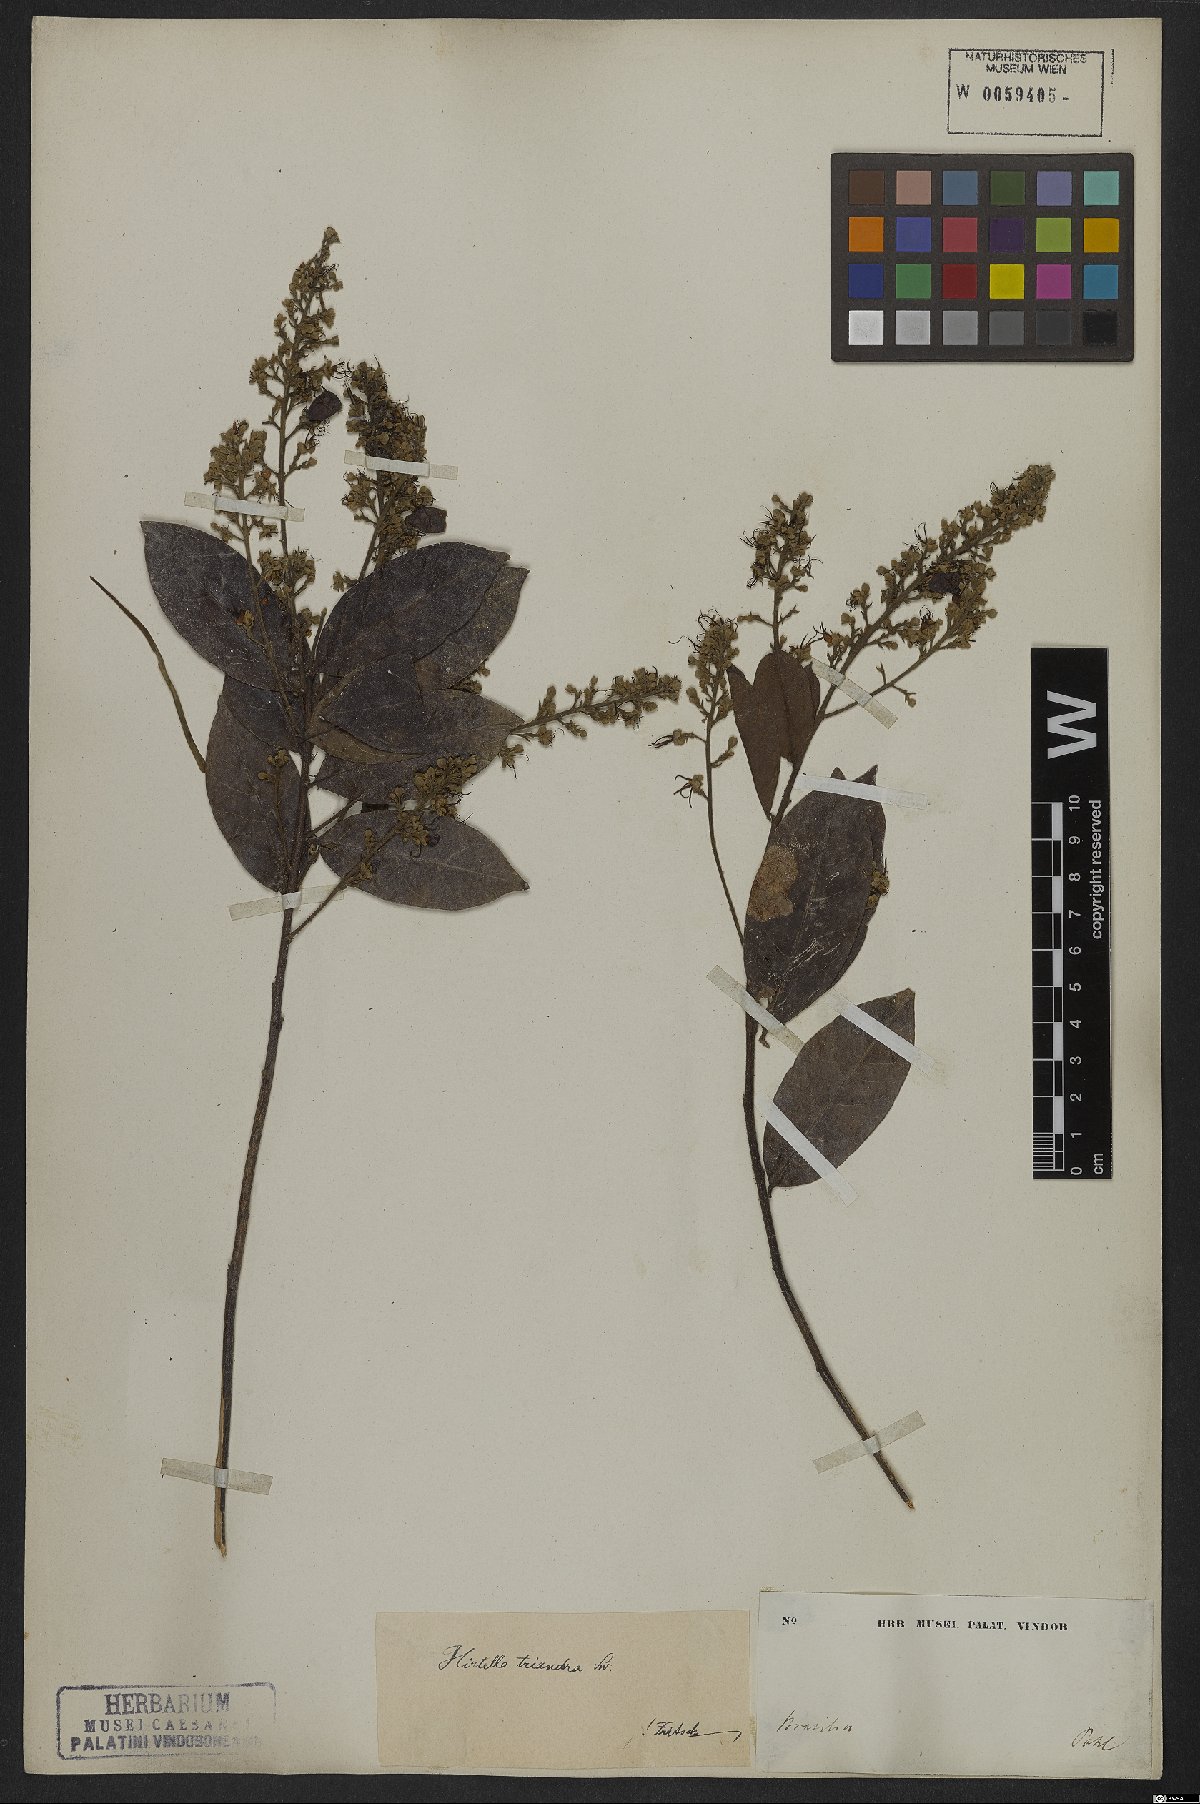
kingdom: Plantae
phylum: Tracheophyta
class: Magnoliopsida
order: Malpighiales
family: Chrysobalanaceae
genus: Hirtella
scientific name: Hirtella triandra
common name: Hairy plum
